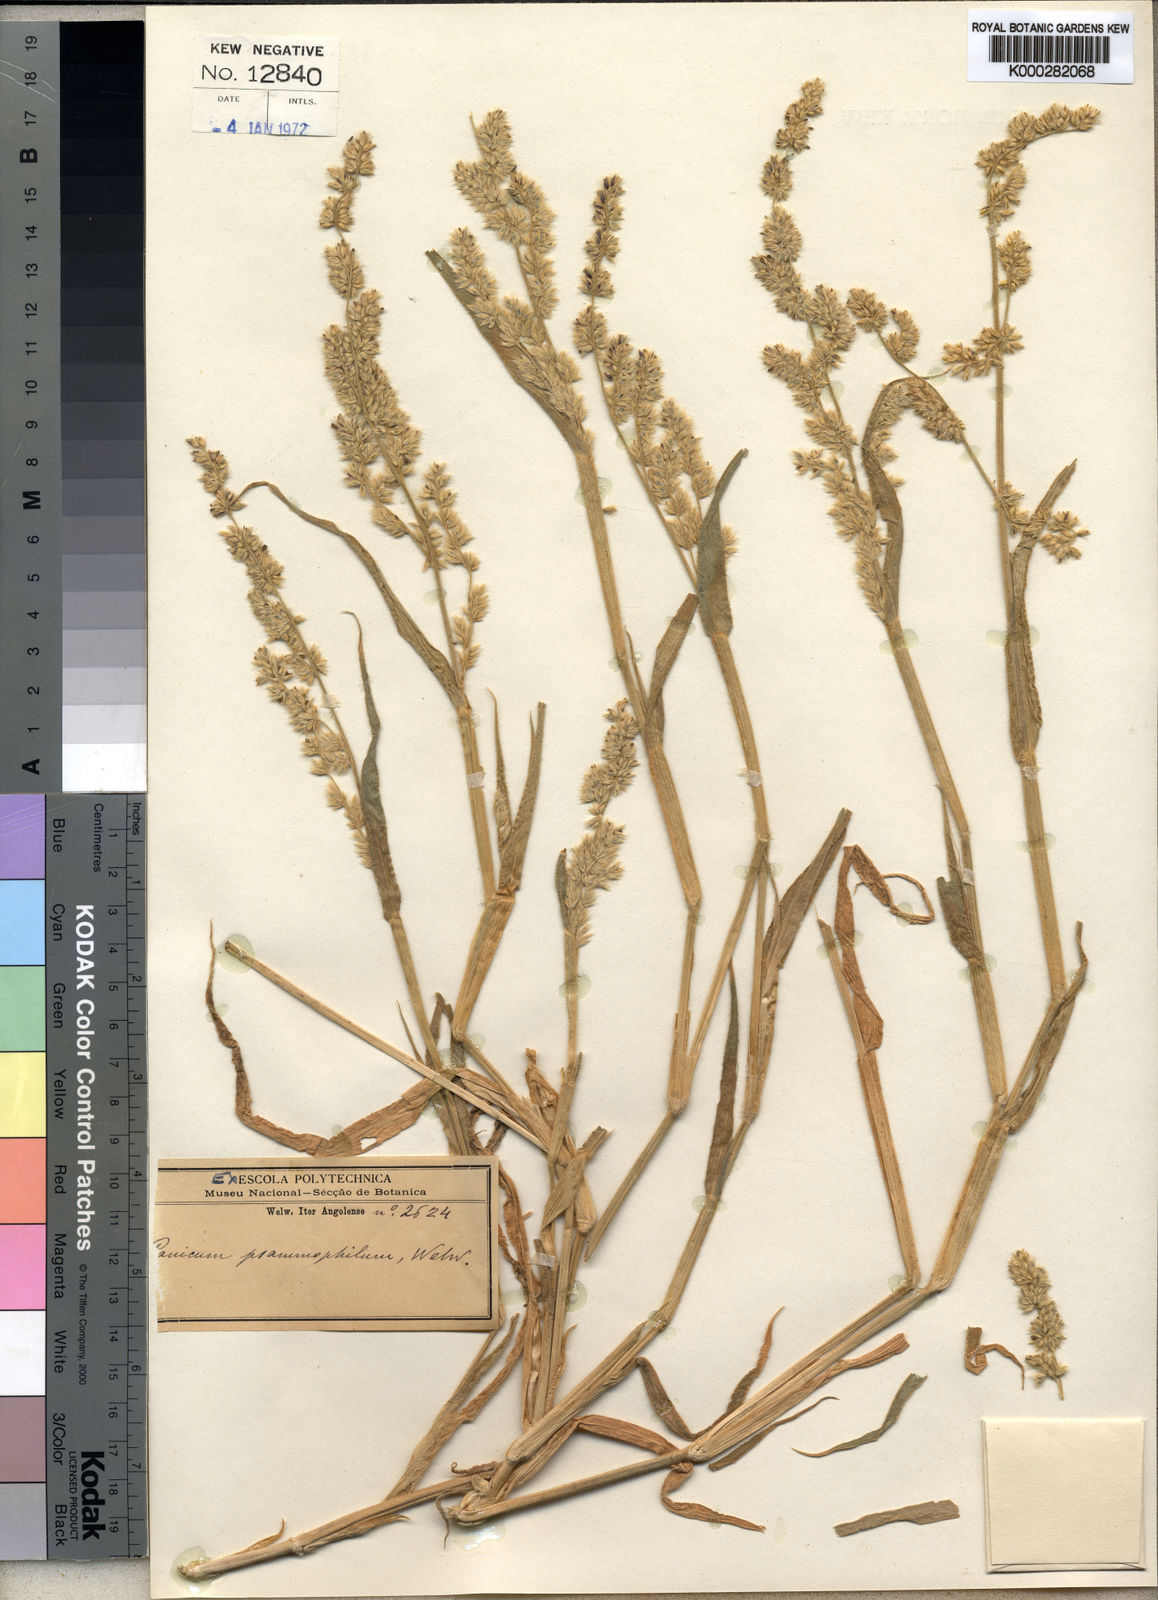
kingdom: Plantae
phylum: Tracheophyta
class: Liliopsida
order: Poales
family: Poaceae
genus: Urochloa
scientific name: Urochloa Brachiaria psammophila
